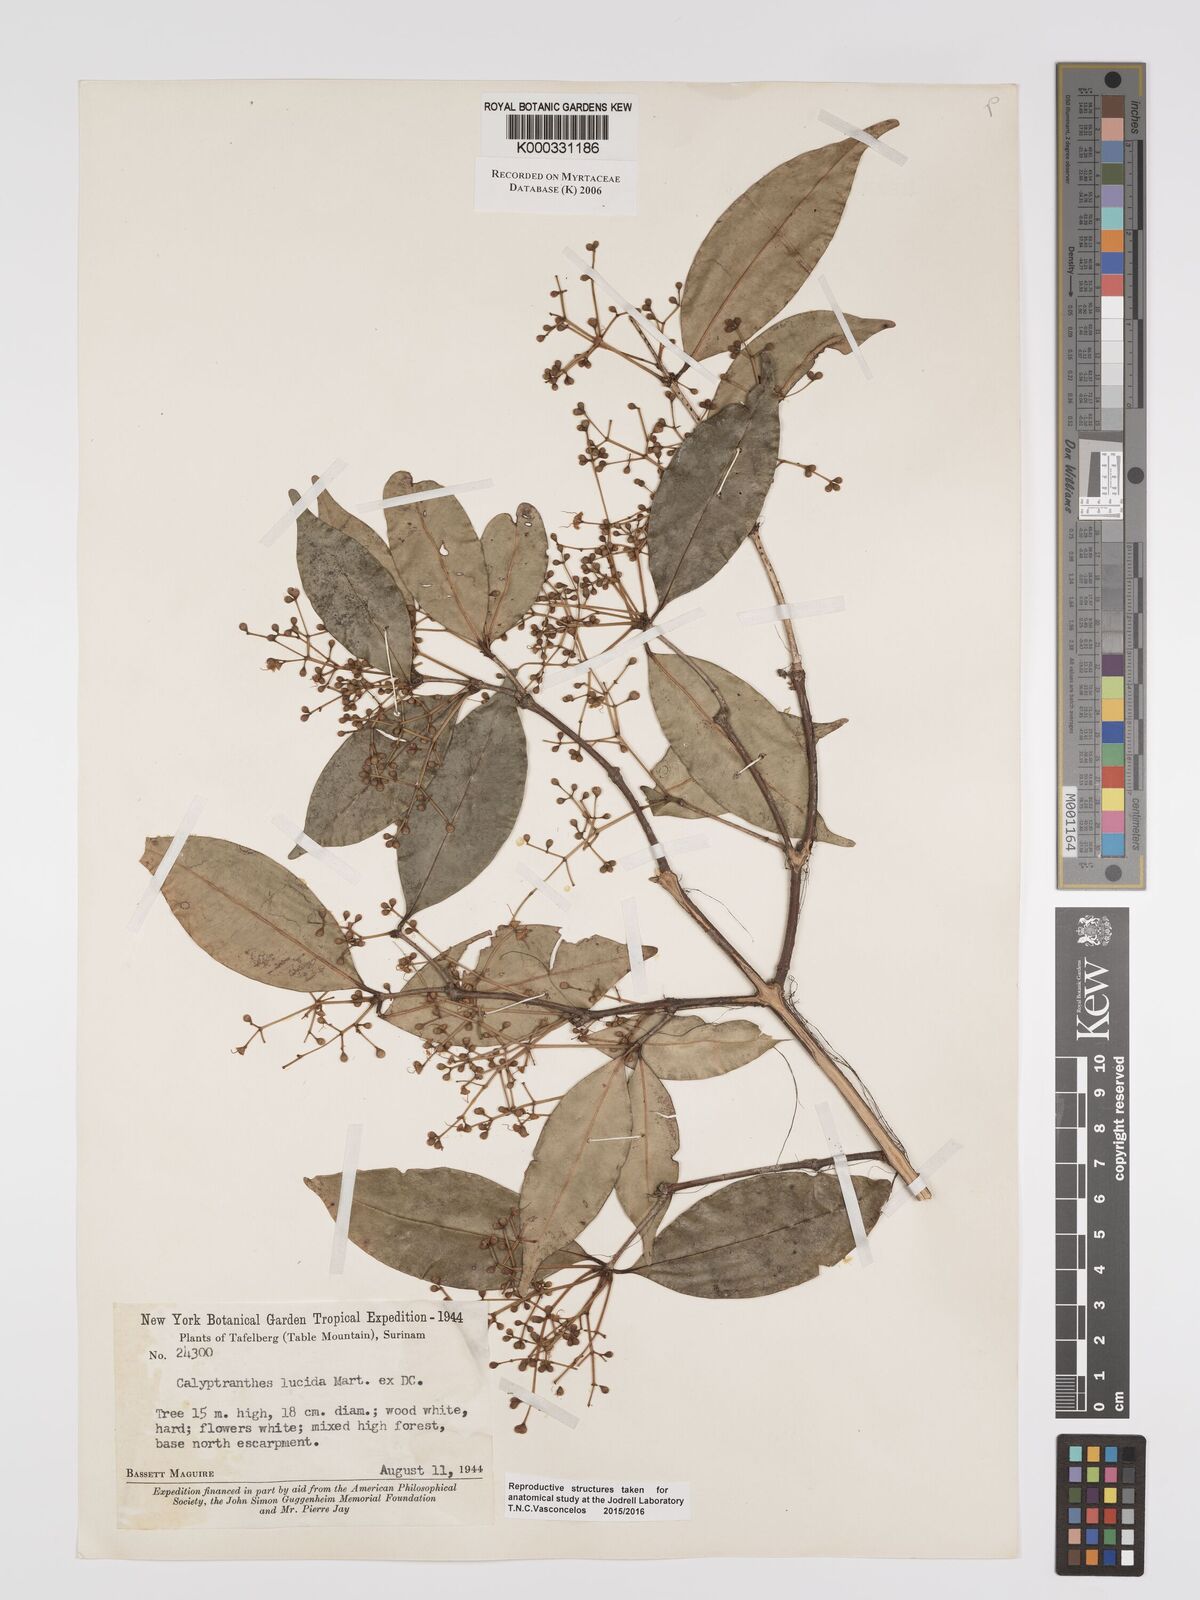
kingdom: Plantae
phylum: Tracheophyta
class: Magnoliopsida
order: Myrtales
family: Myrtaceae
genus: Myrcia
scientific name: Myrcia neolucida
